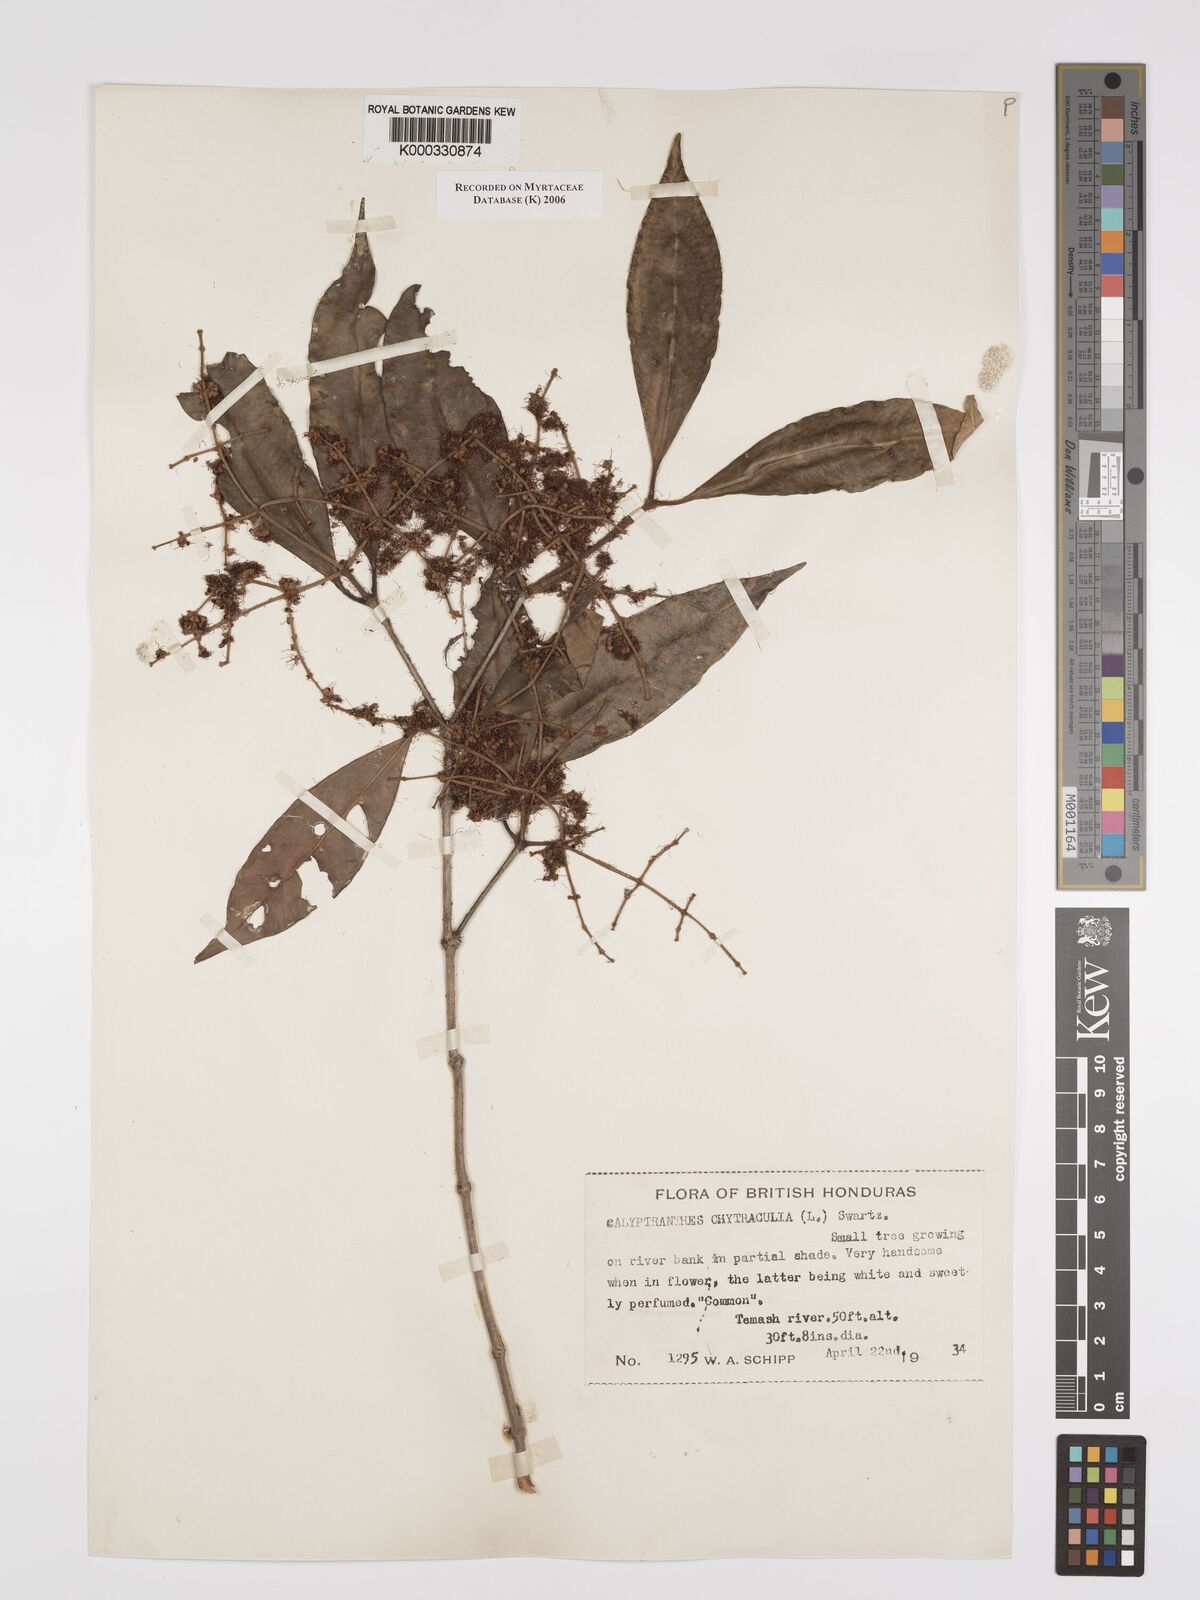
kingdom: Plantae
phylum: Tracheophyta
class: Magnoliopsida
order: Myrtales
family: Myrtaceae
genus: Myrcia
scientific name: Myrcia chytraculia
